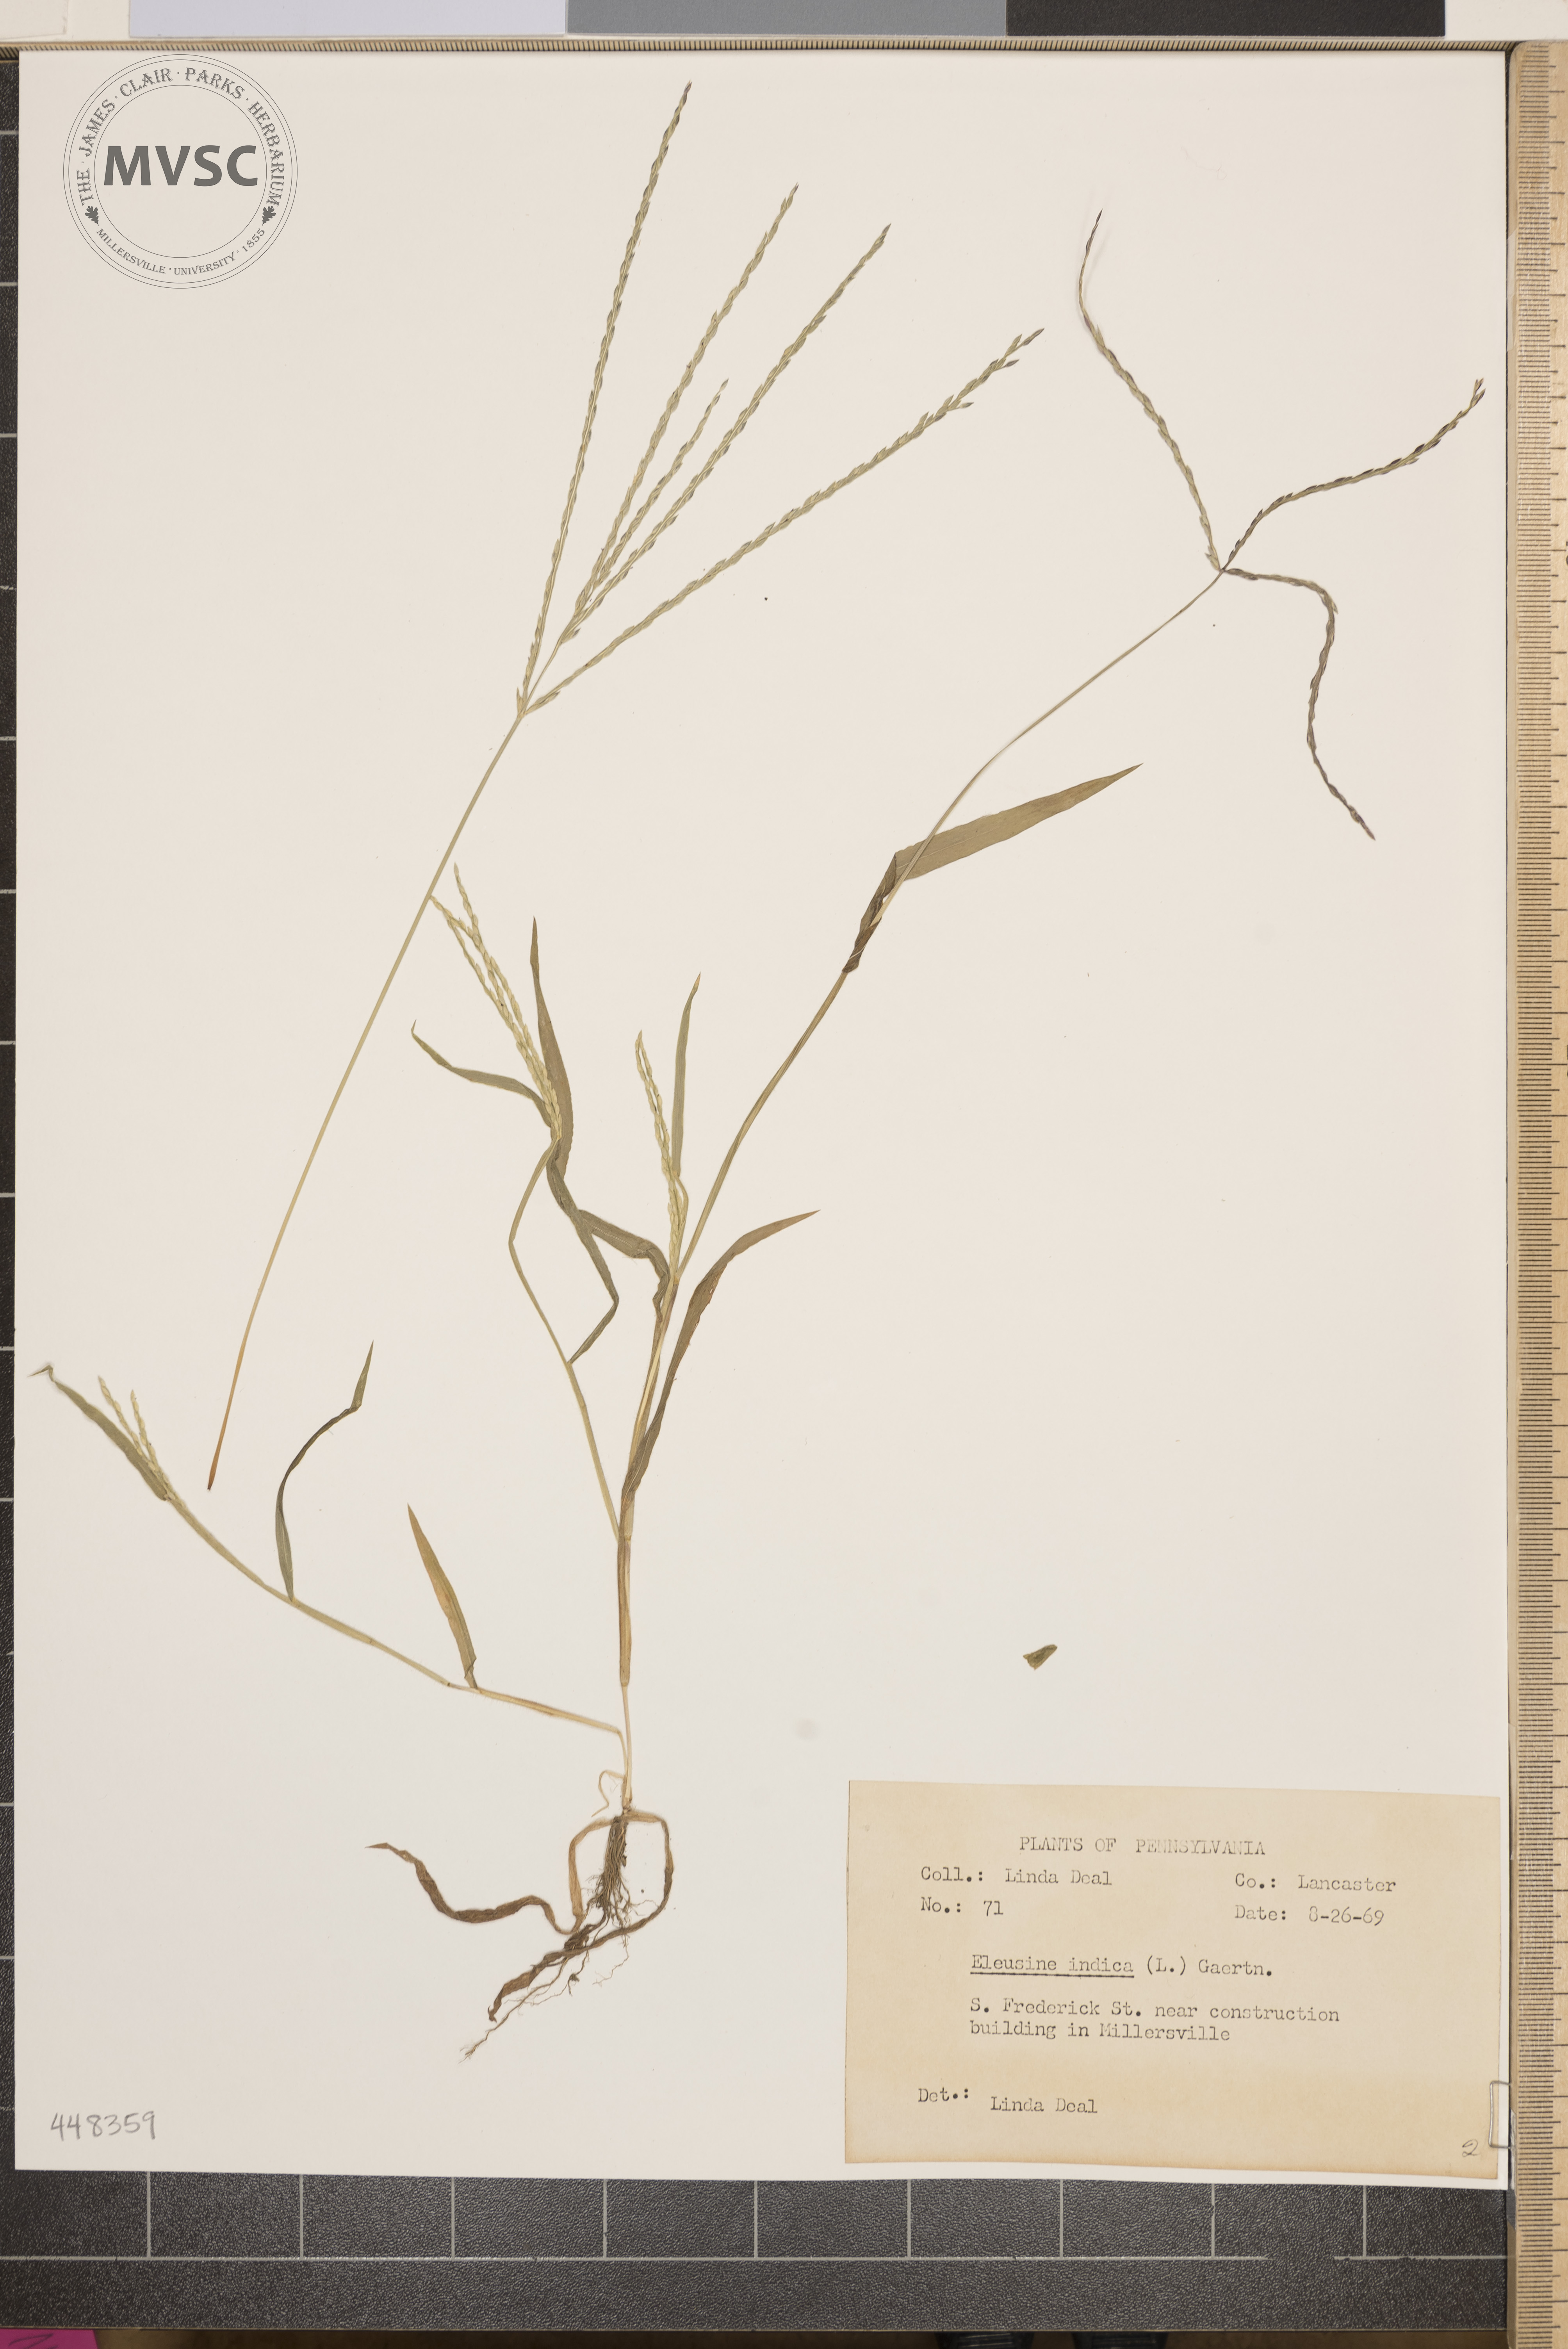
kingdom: Plantae
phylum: Tracheophyta
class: Liliopsida
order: Poales
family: Poaceae
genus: Digitaria
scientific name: Digitaria ischaemum
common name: Smooth crabgrass
